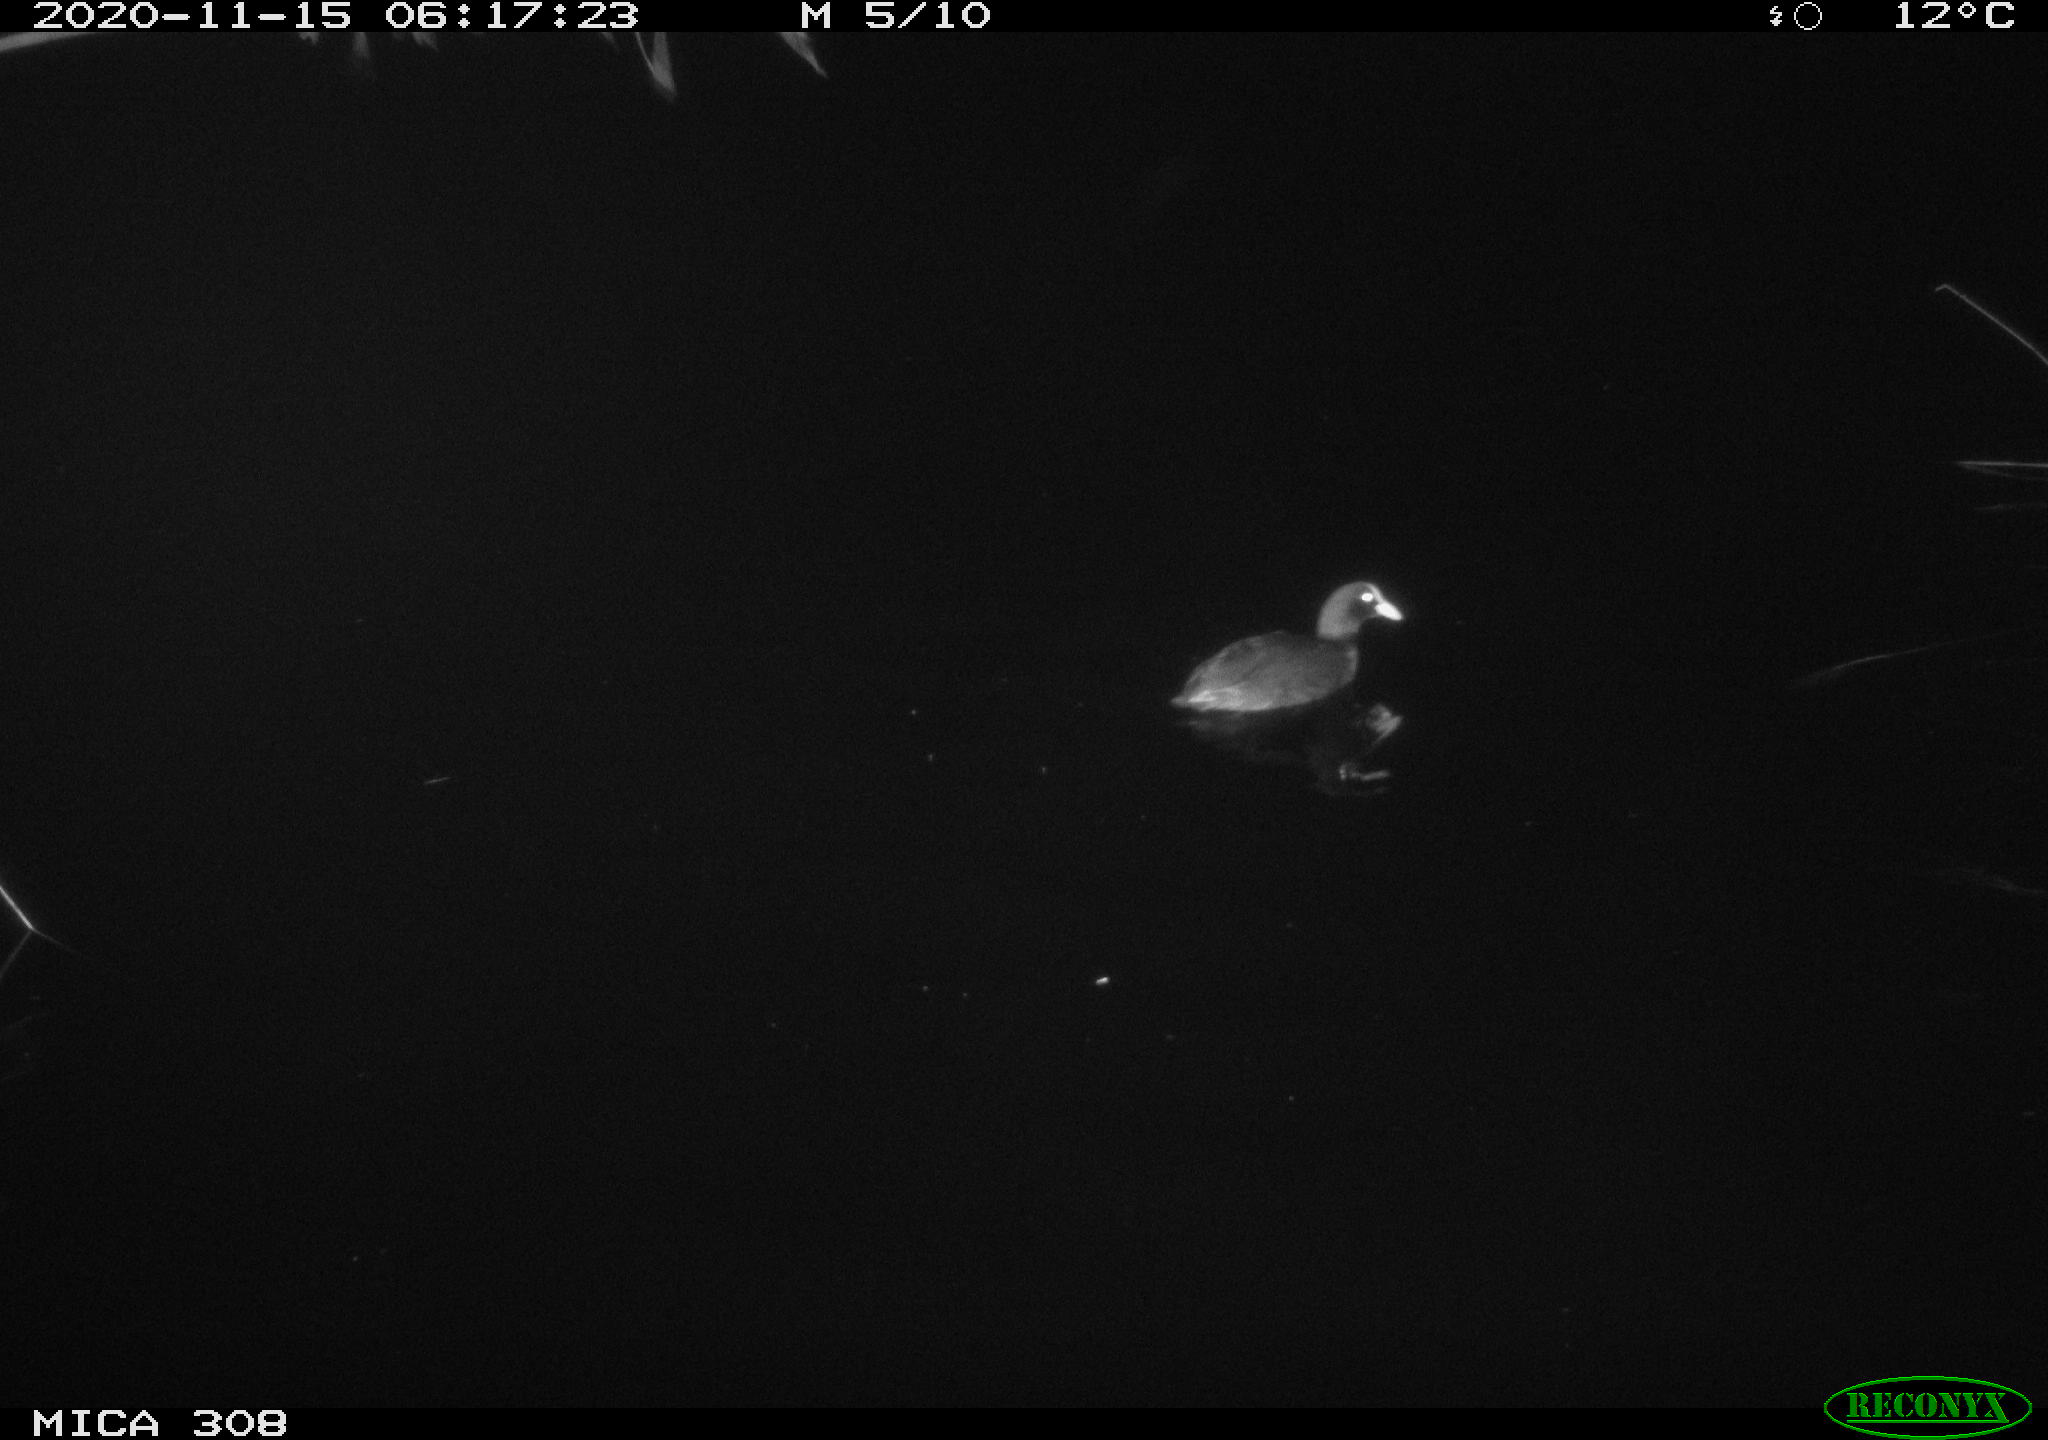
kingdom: Animalia
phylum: Chordata
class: Aves
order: Gruiformes
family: Rallidae
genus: Fulica
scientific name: Fulica atra
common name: Eurasian coot
